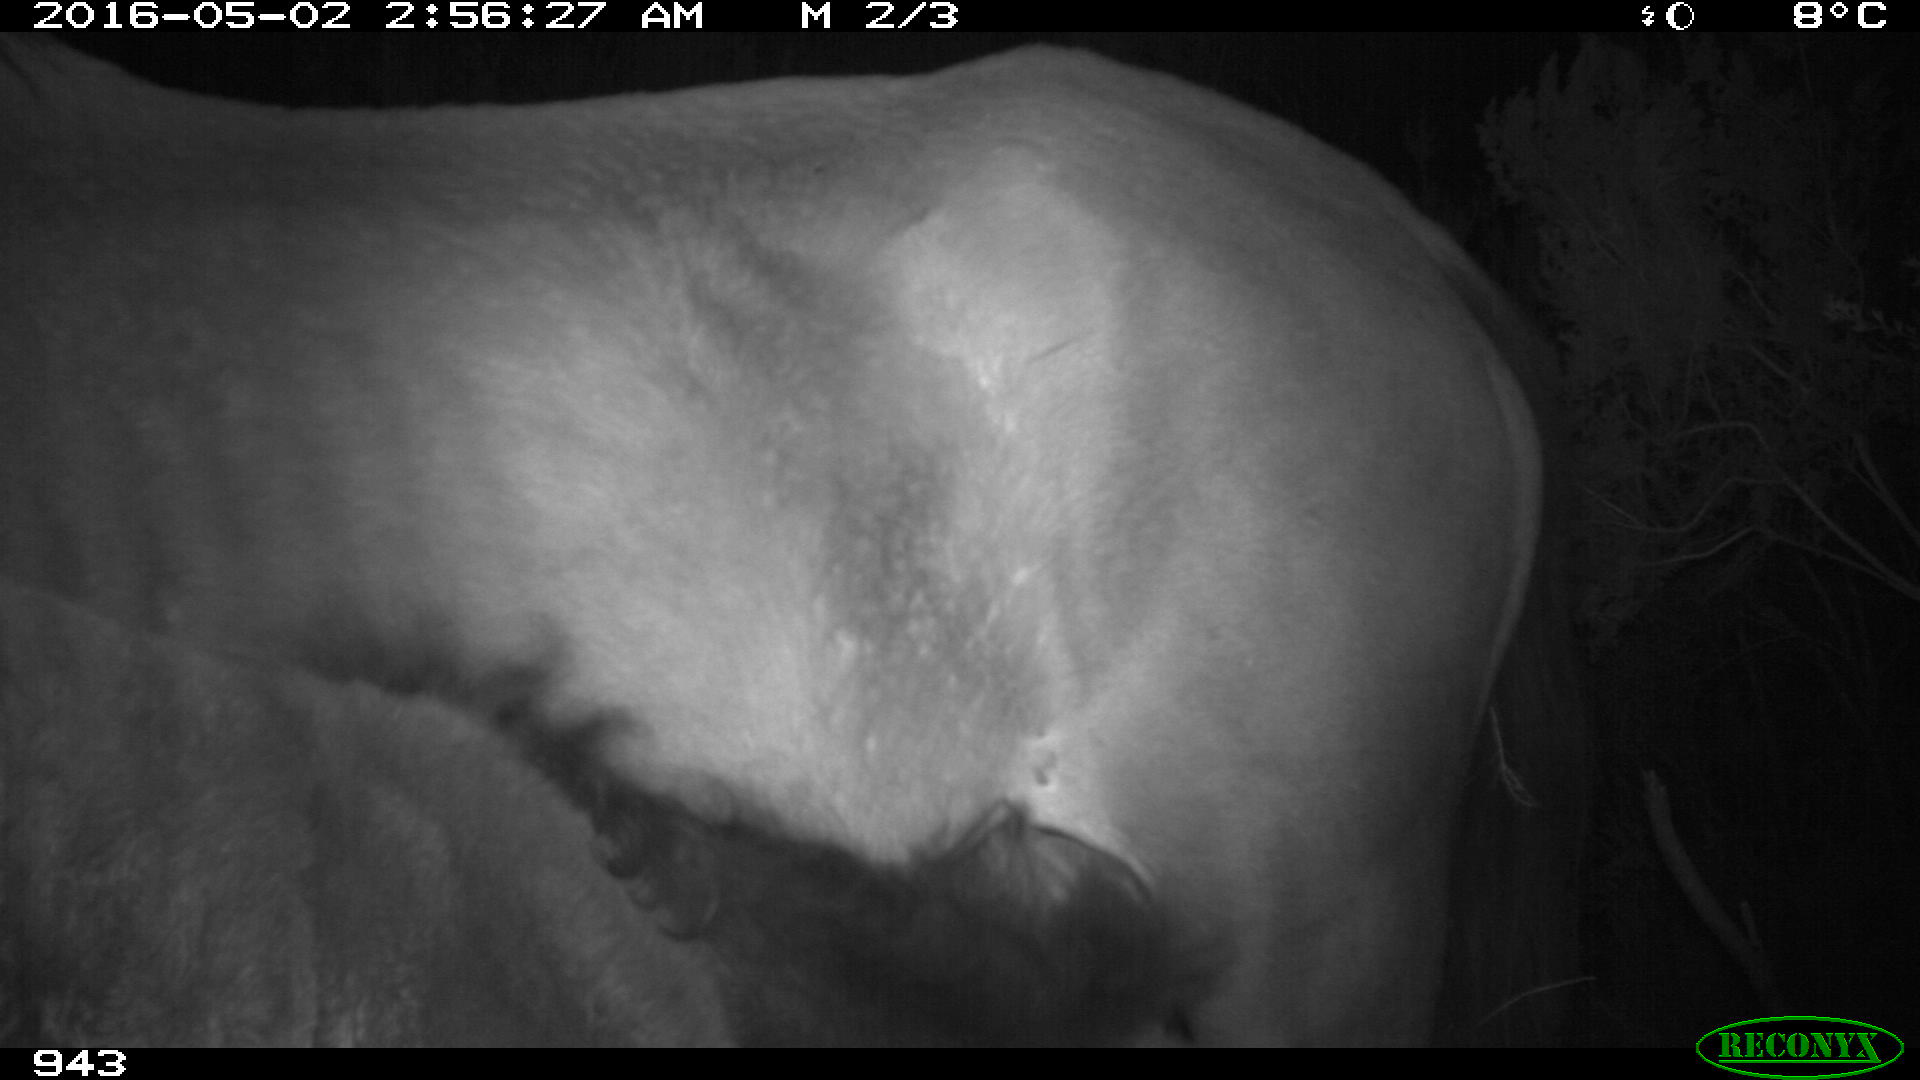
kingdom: Animalia
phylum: Chordata
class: Mammalia
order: Perissodactyla
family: Equidae
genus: Equus
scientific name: Equus caballus
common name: Horse
